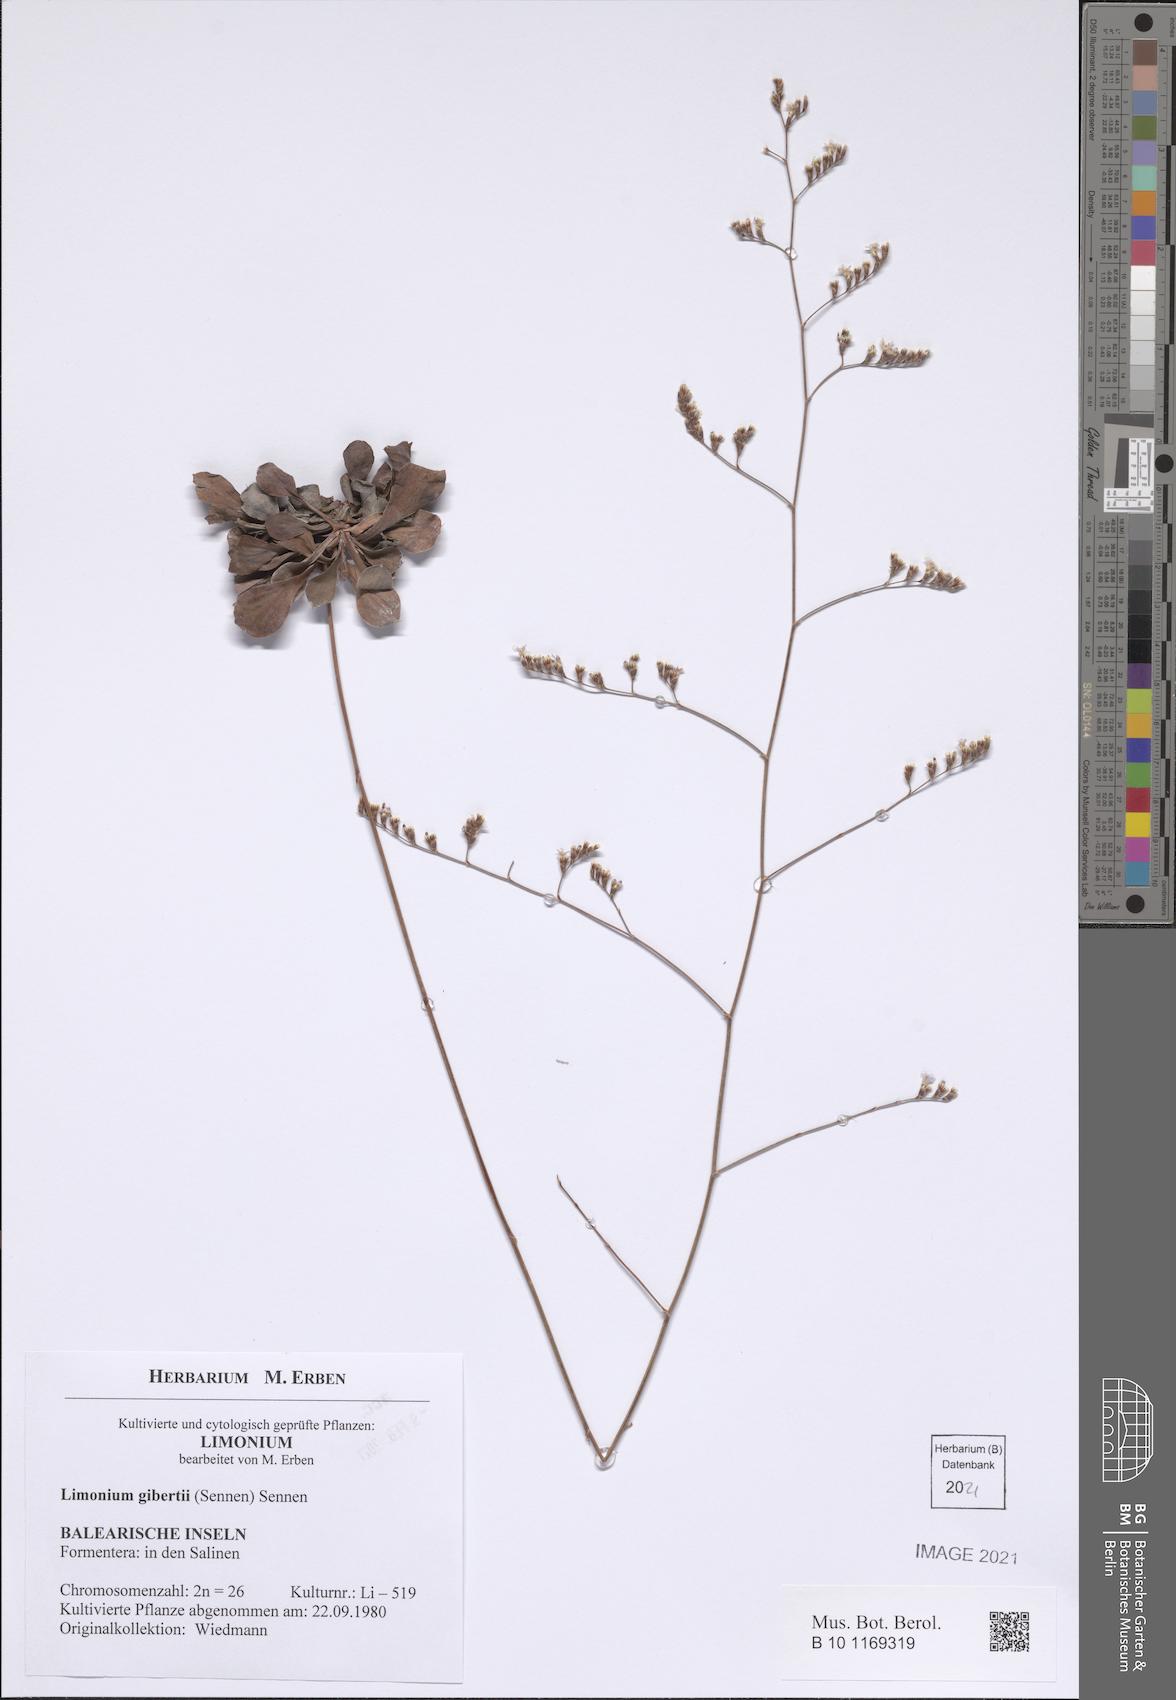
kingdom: Plantae
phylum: Tracheophyta
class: Magnoliopsida
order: Caryophyllales
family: Plumbaginaceae
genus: Limonium
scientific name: Limonium gibertii
